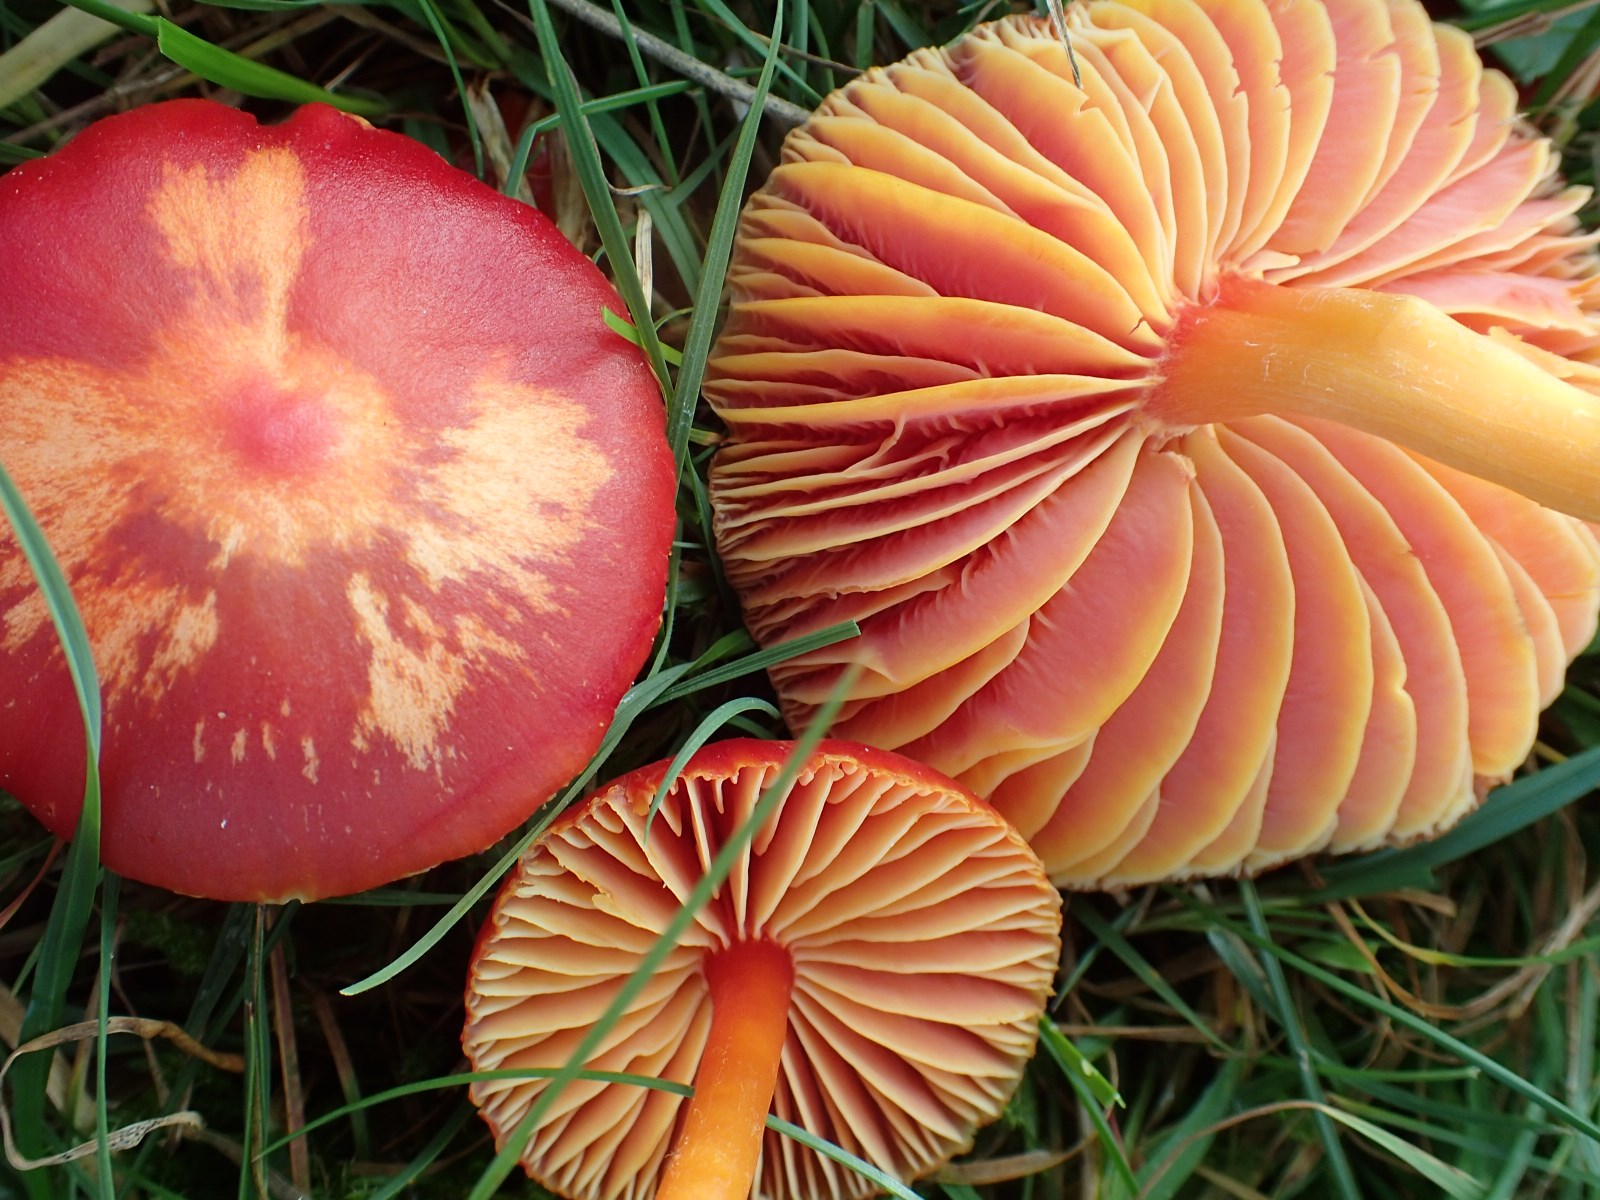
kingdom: Fungi
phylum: Basidiomycota
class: Agaricomycetes
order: Agaricales
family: Hygrophoraceae
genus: Hygrocybe
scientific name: Hygrocybe coccinea
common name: cinnober-vokshat
